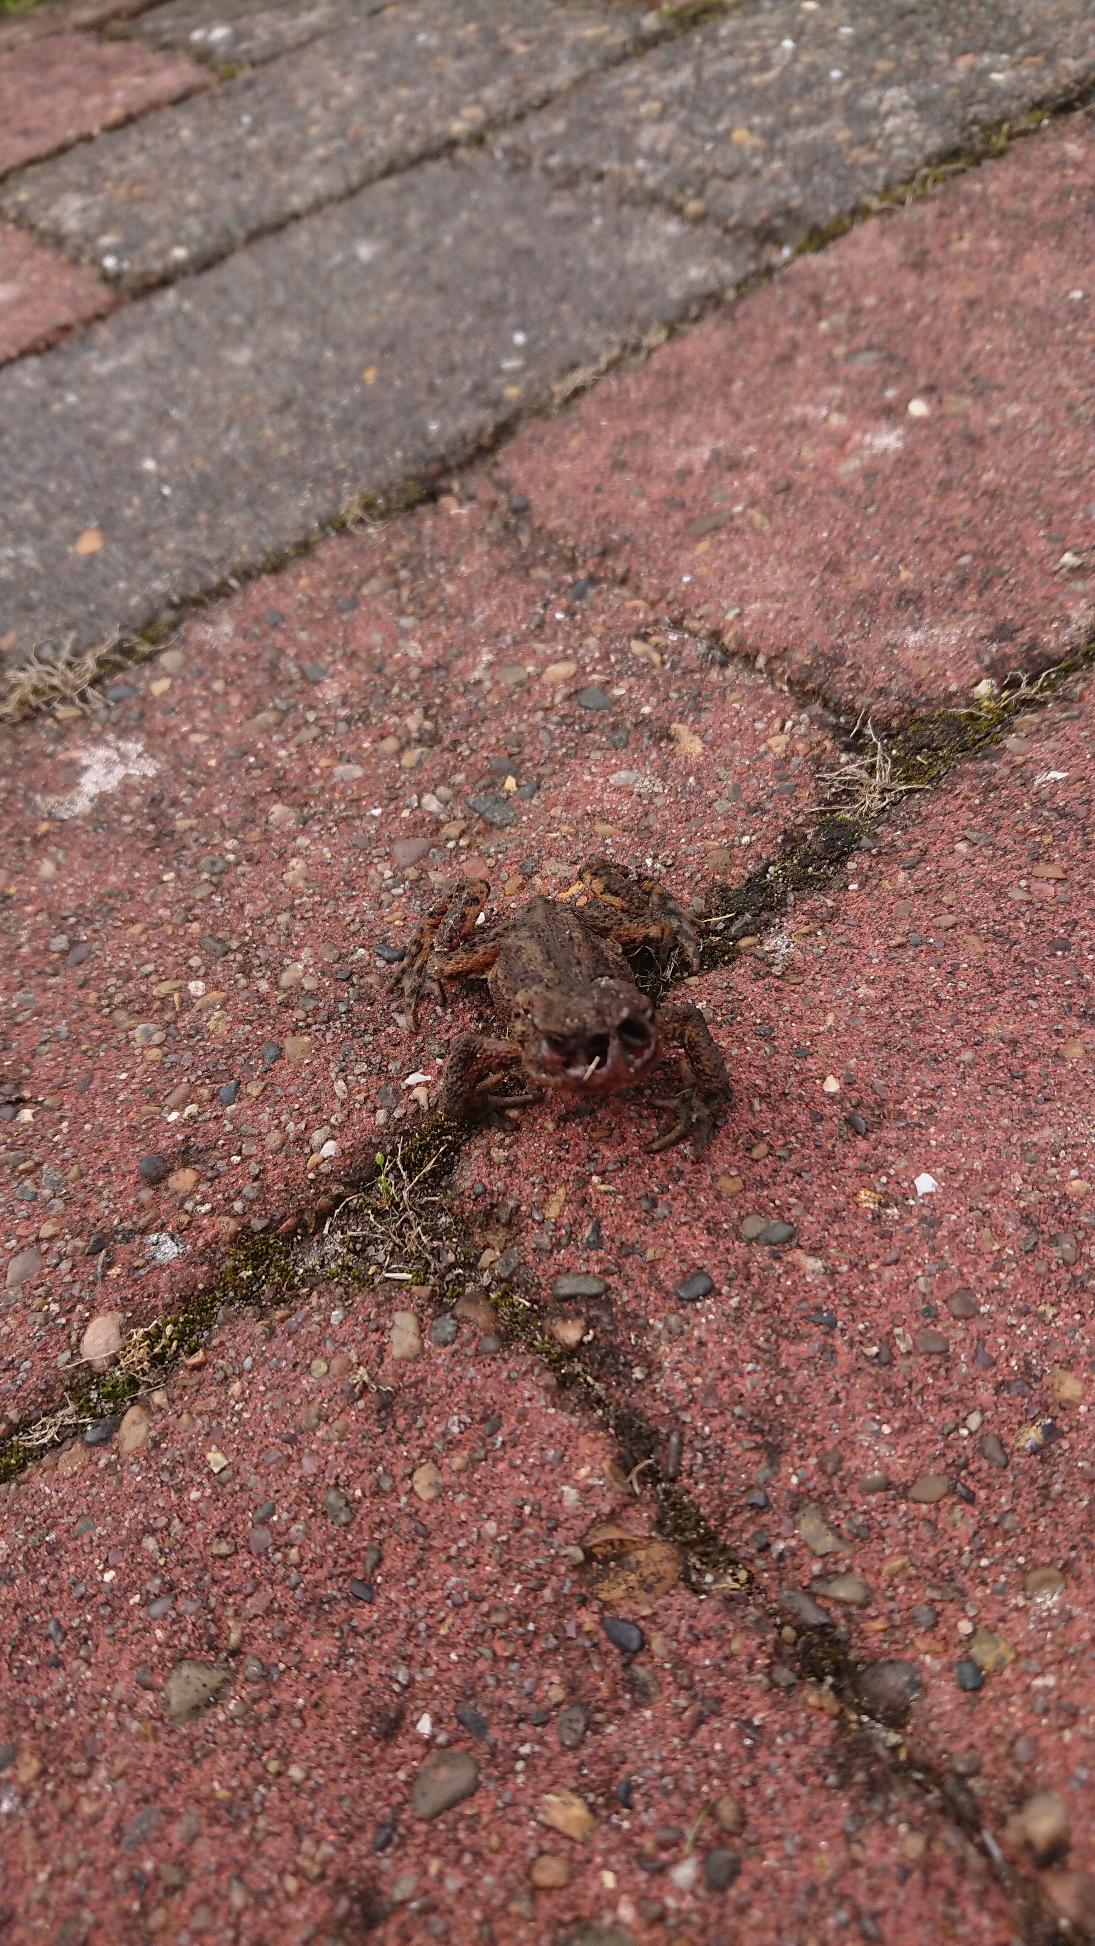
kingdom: Animalia
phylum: Chordata
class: Amphibia
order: Anura
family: Bufonidae
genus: Bufo
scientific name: Bufo bufo
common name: Skrubtudse
